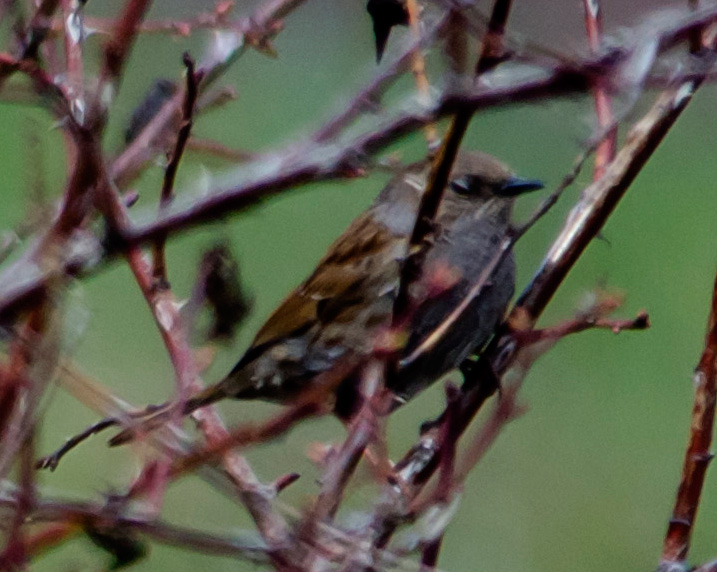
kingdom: Animalia
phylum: Chordata
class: Aves
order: Passeriformes
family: Prunellidae
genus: Prunella
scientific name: Prunella modularis
